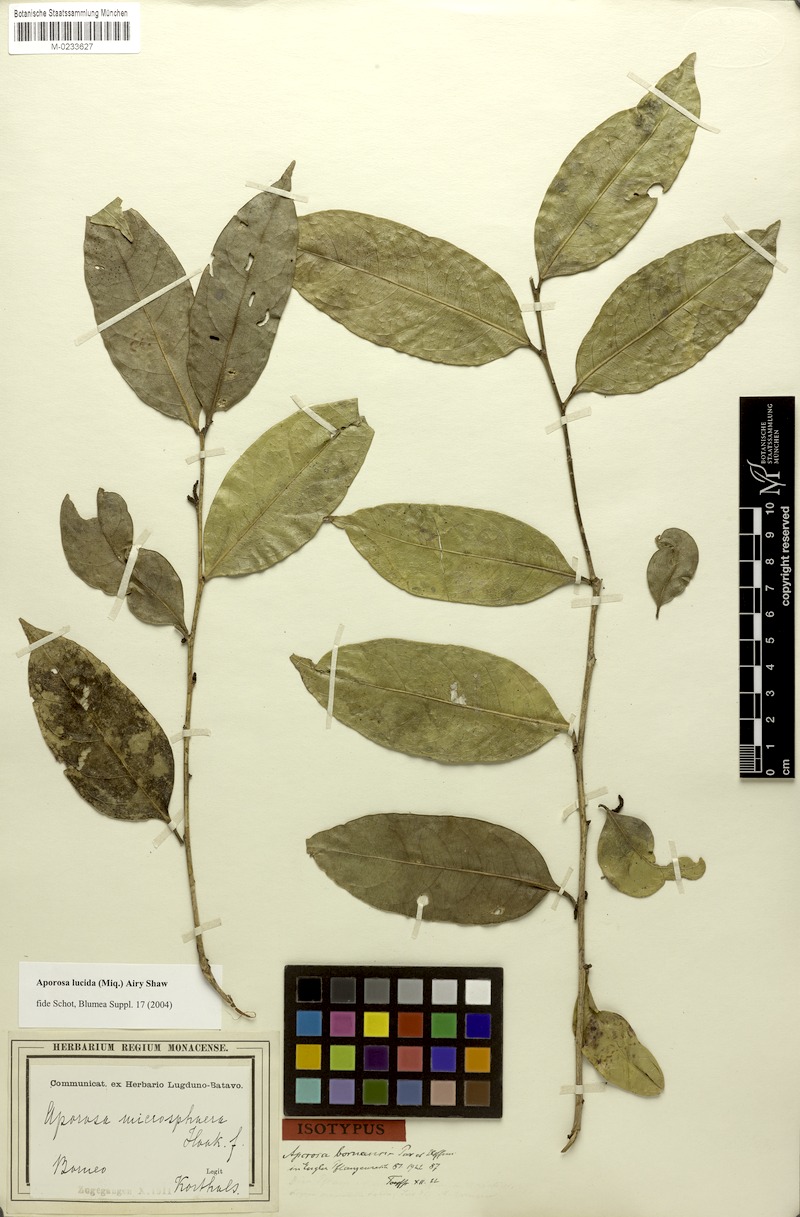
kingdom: Plantae
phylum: Tracheophyta
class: Magnoliopsida
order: Malpighiales
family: Phyllanthaceae
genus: Aporosa
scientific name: Aporosa lucida
